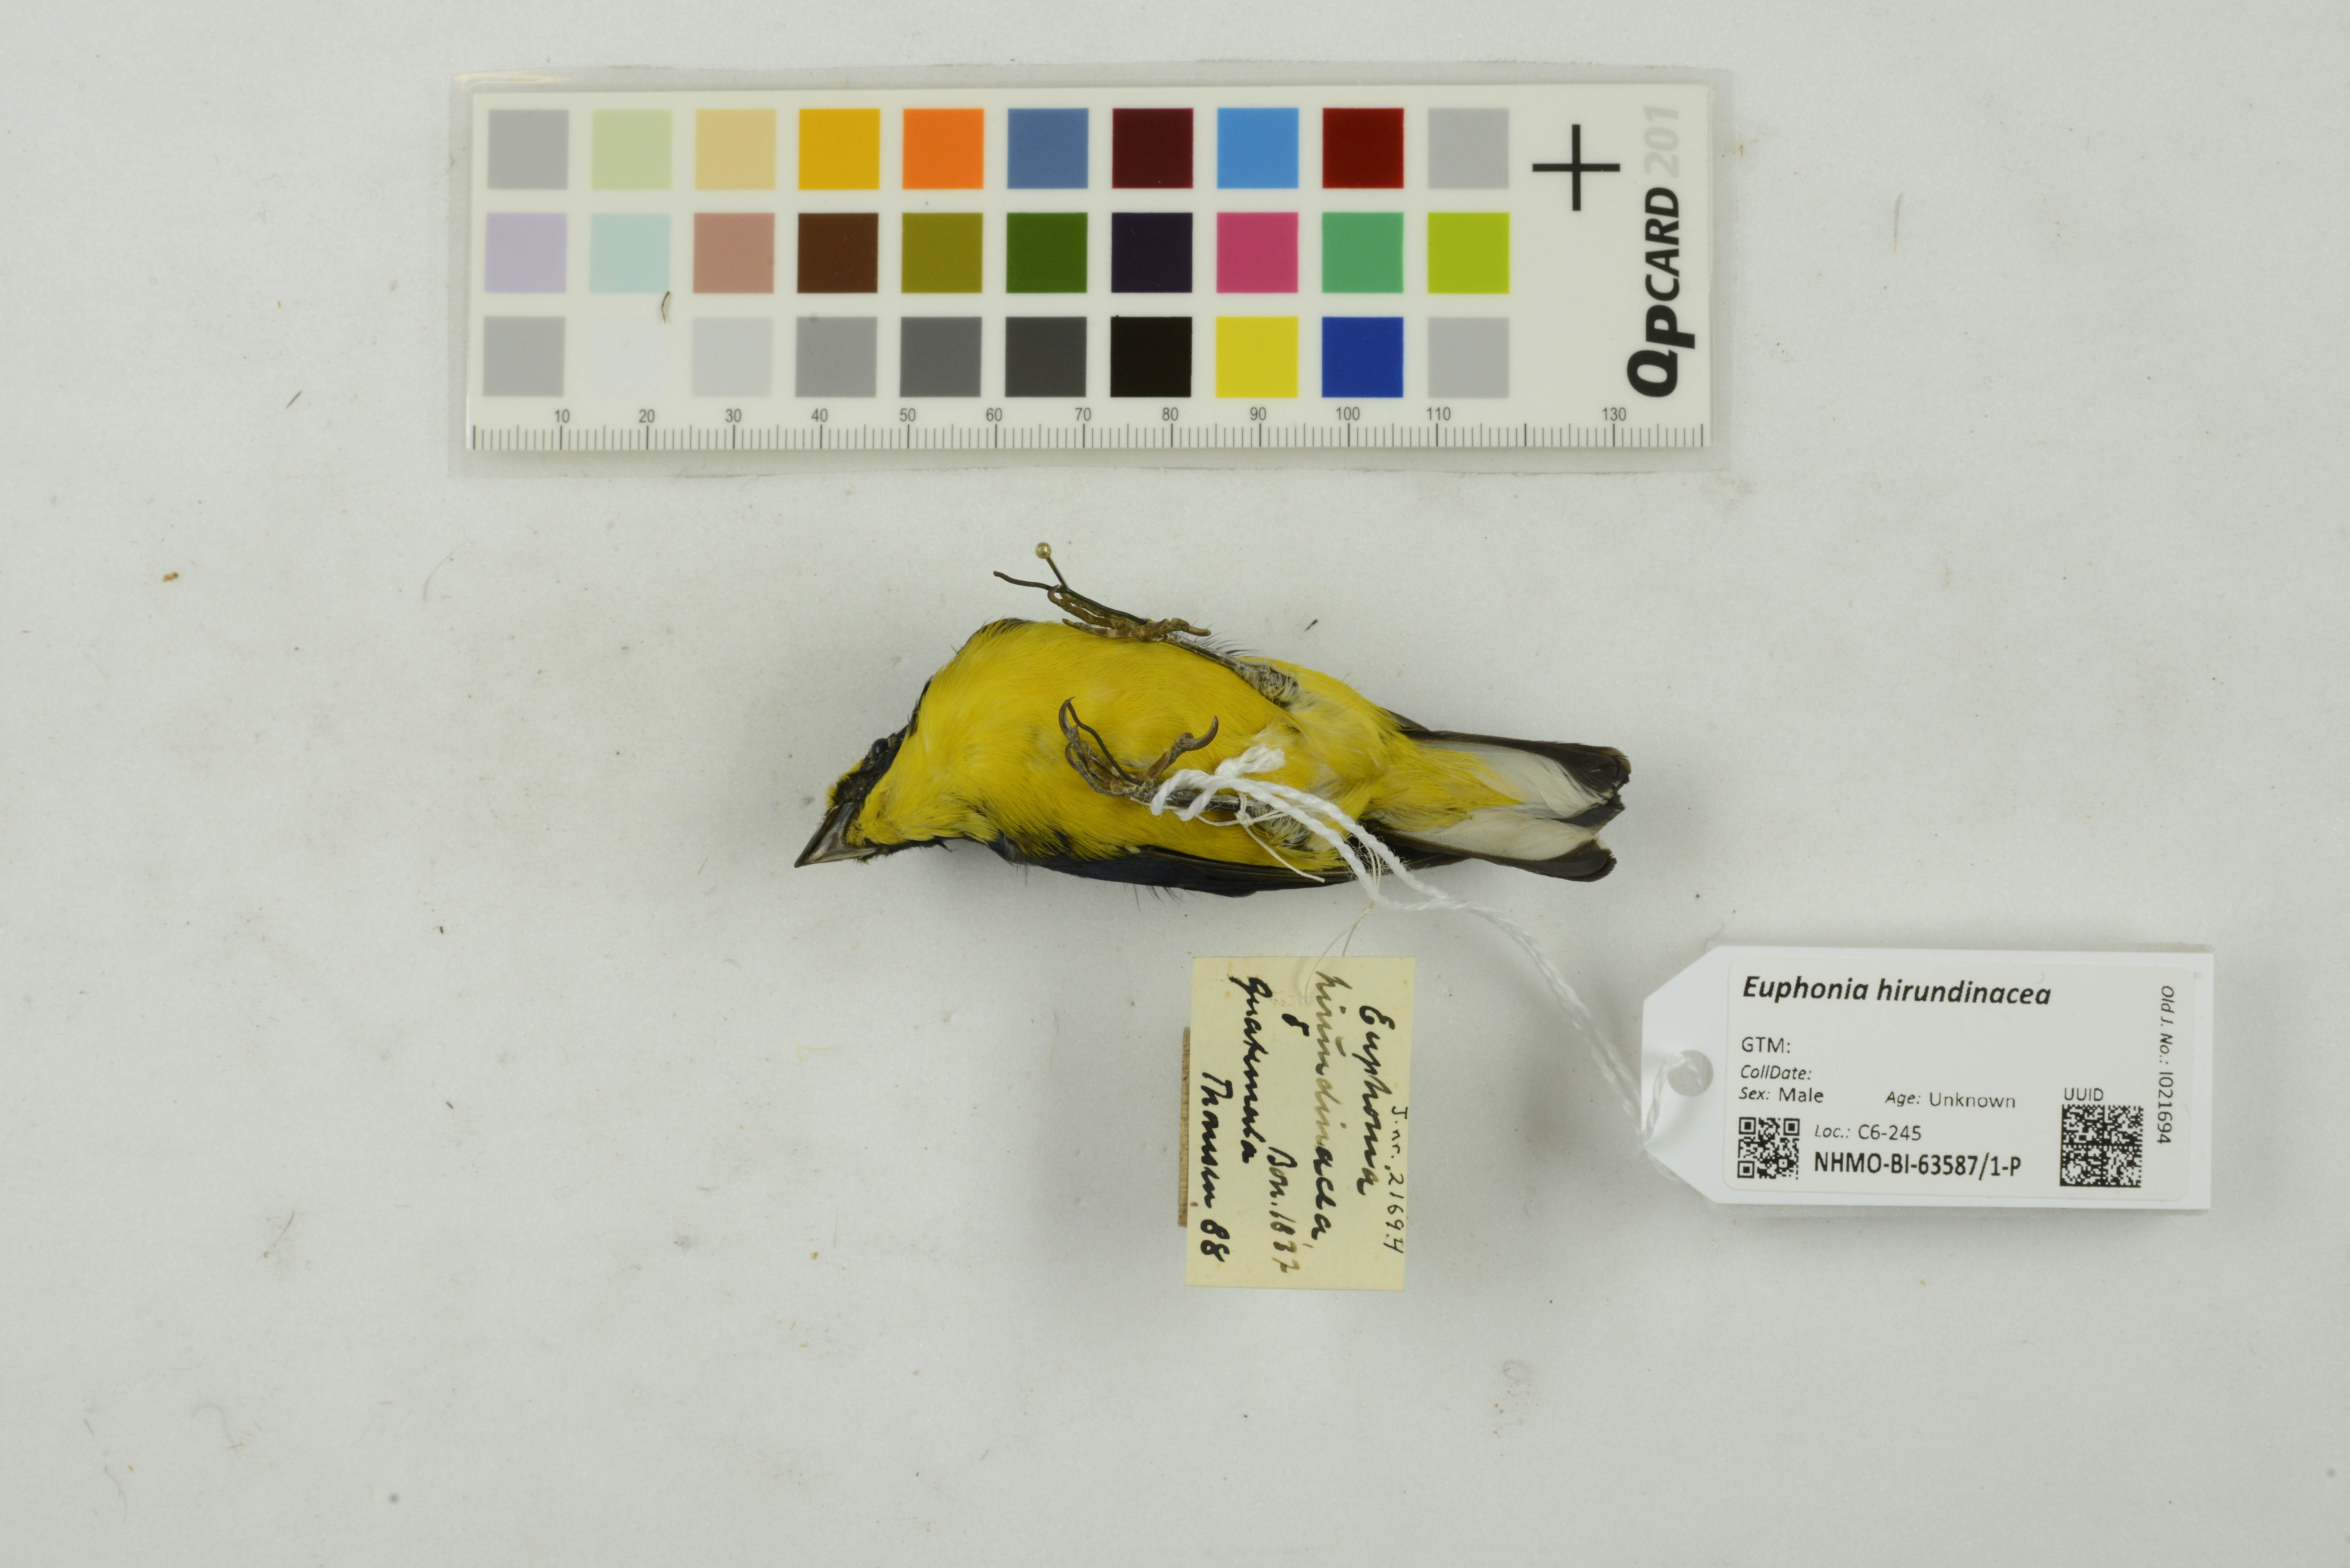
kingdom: Animalia
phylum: Chordata
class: Aves
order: Passeriformes
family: Fringillidae
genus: Euphonia
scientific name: Euphonia hirundinacea
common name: Yellow-throated euphonia
